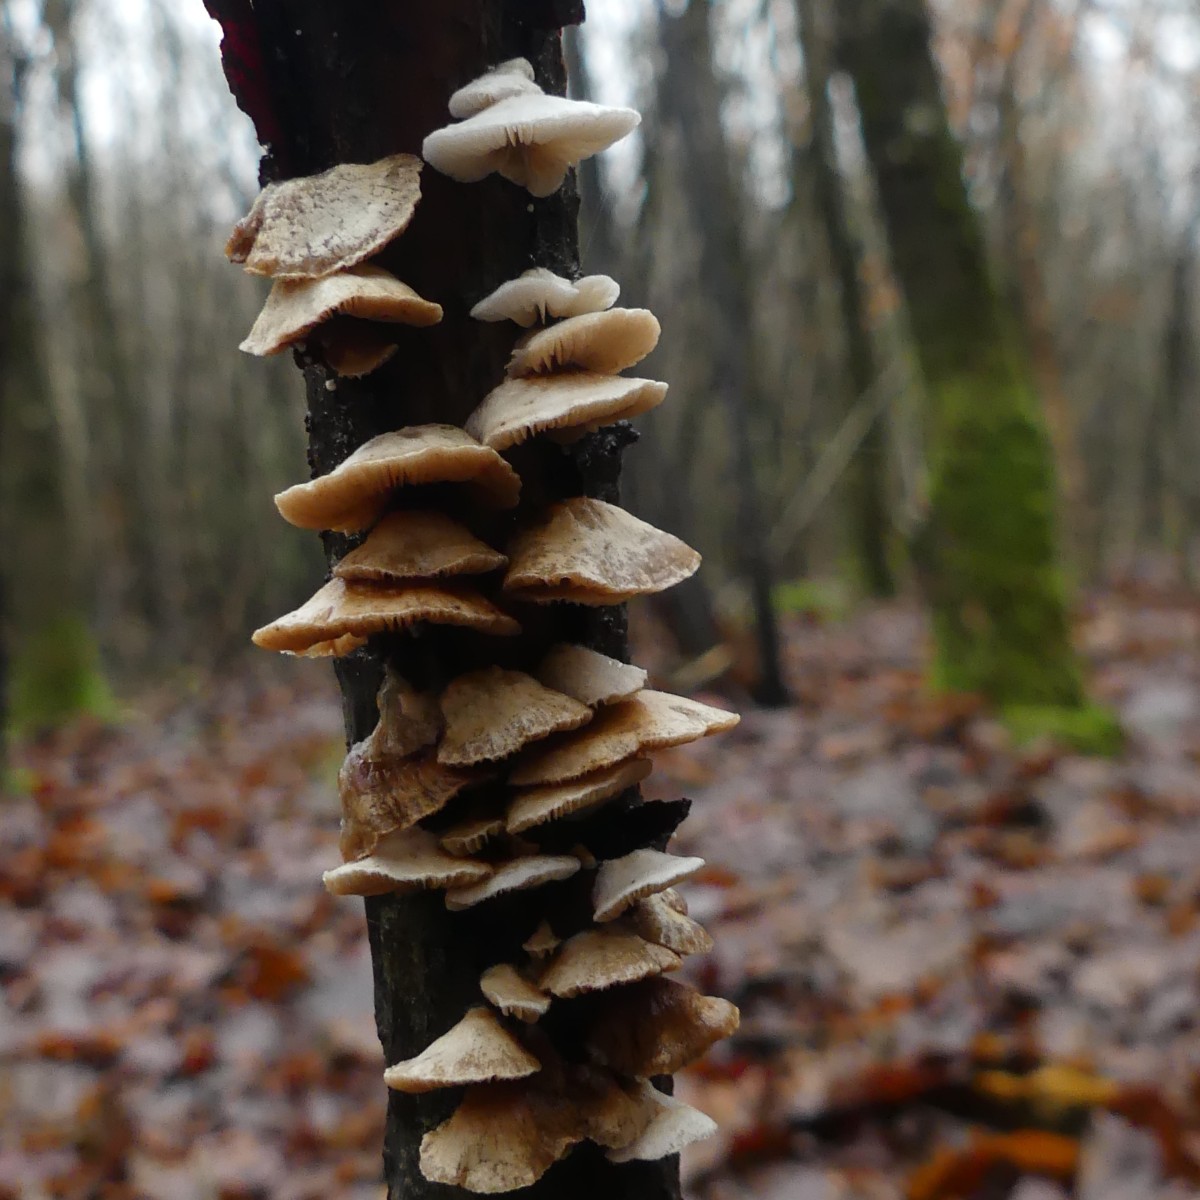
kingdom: Fungi
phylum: Basidiomycota
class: Agaricomycetes
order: Agaricales
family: Crepidotaceae
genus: Crepidotus
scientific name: Crepidotus
